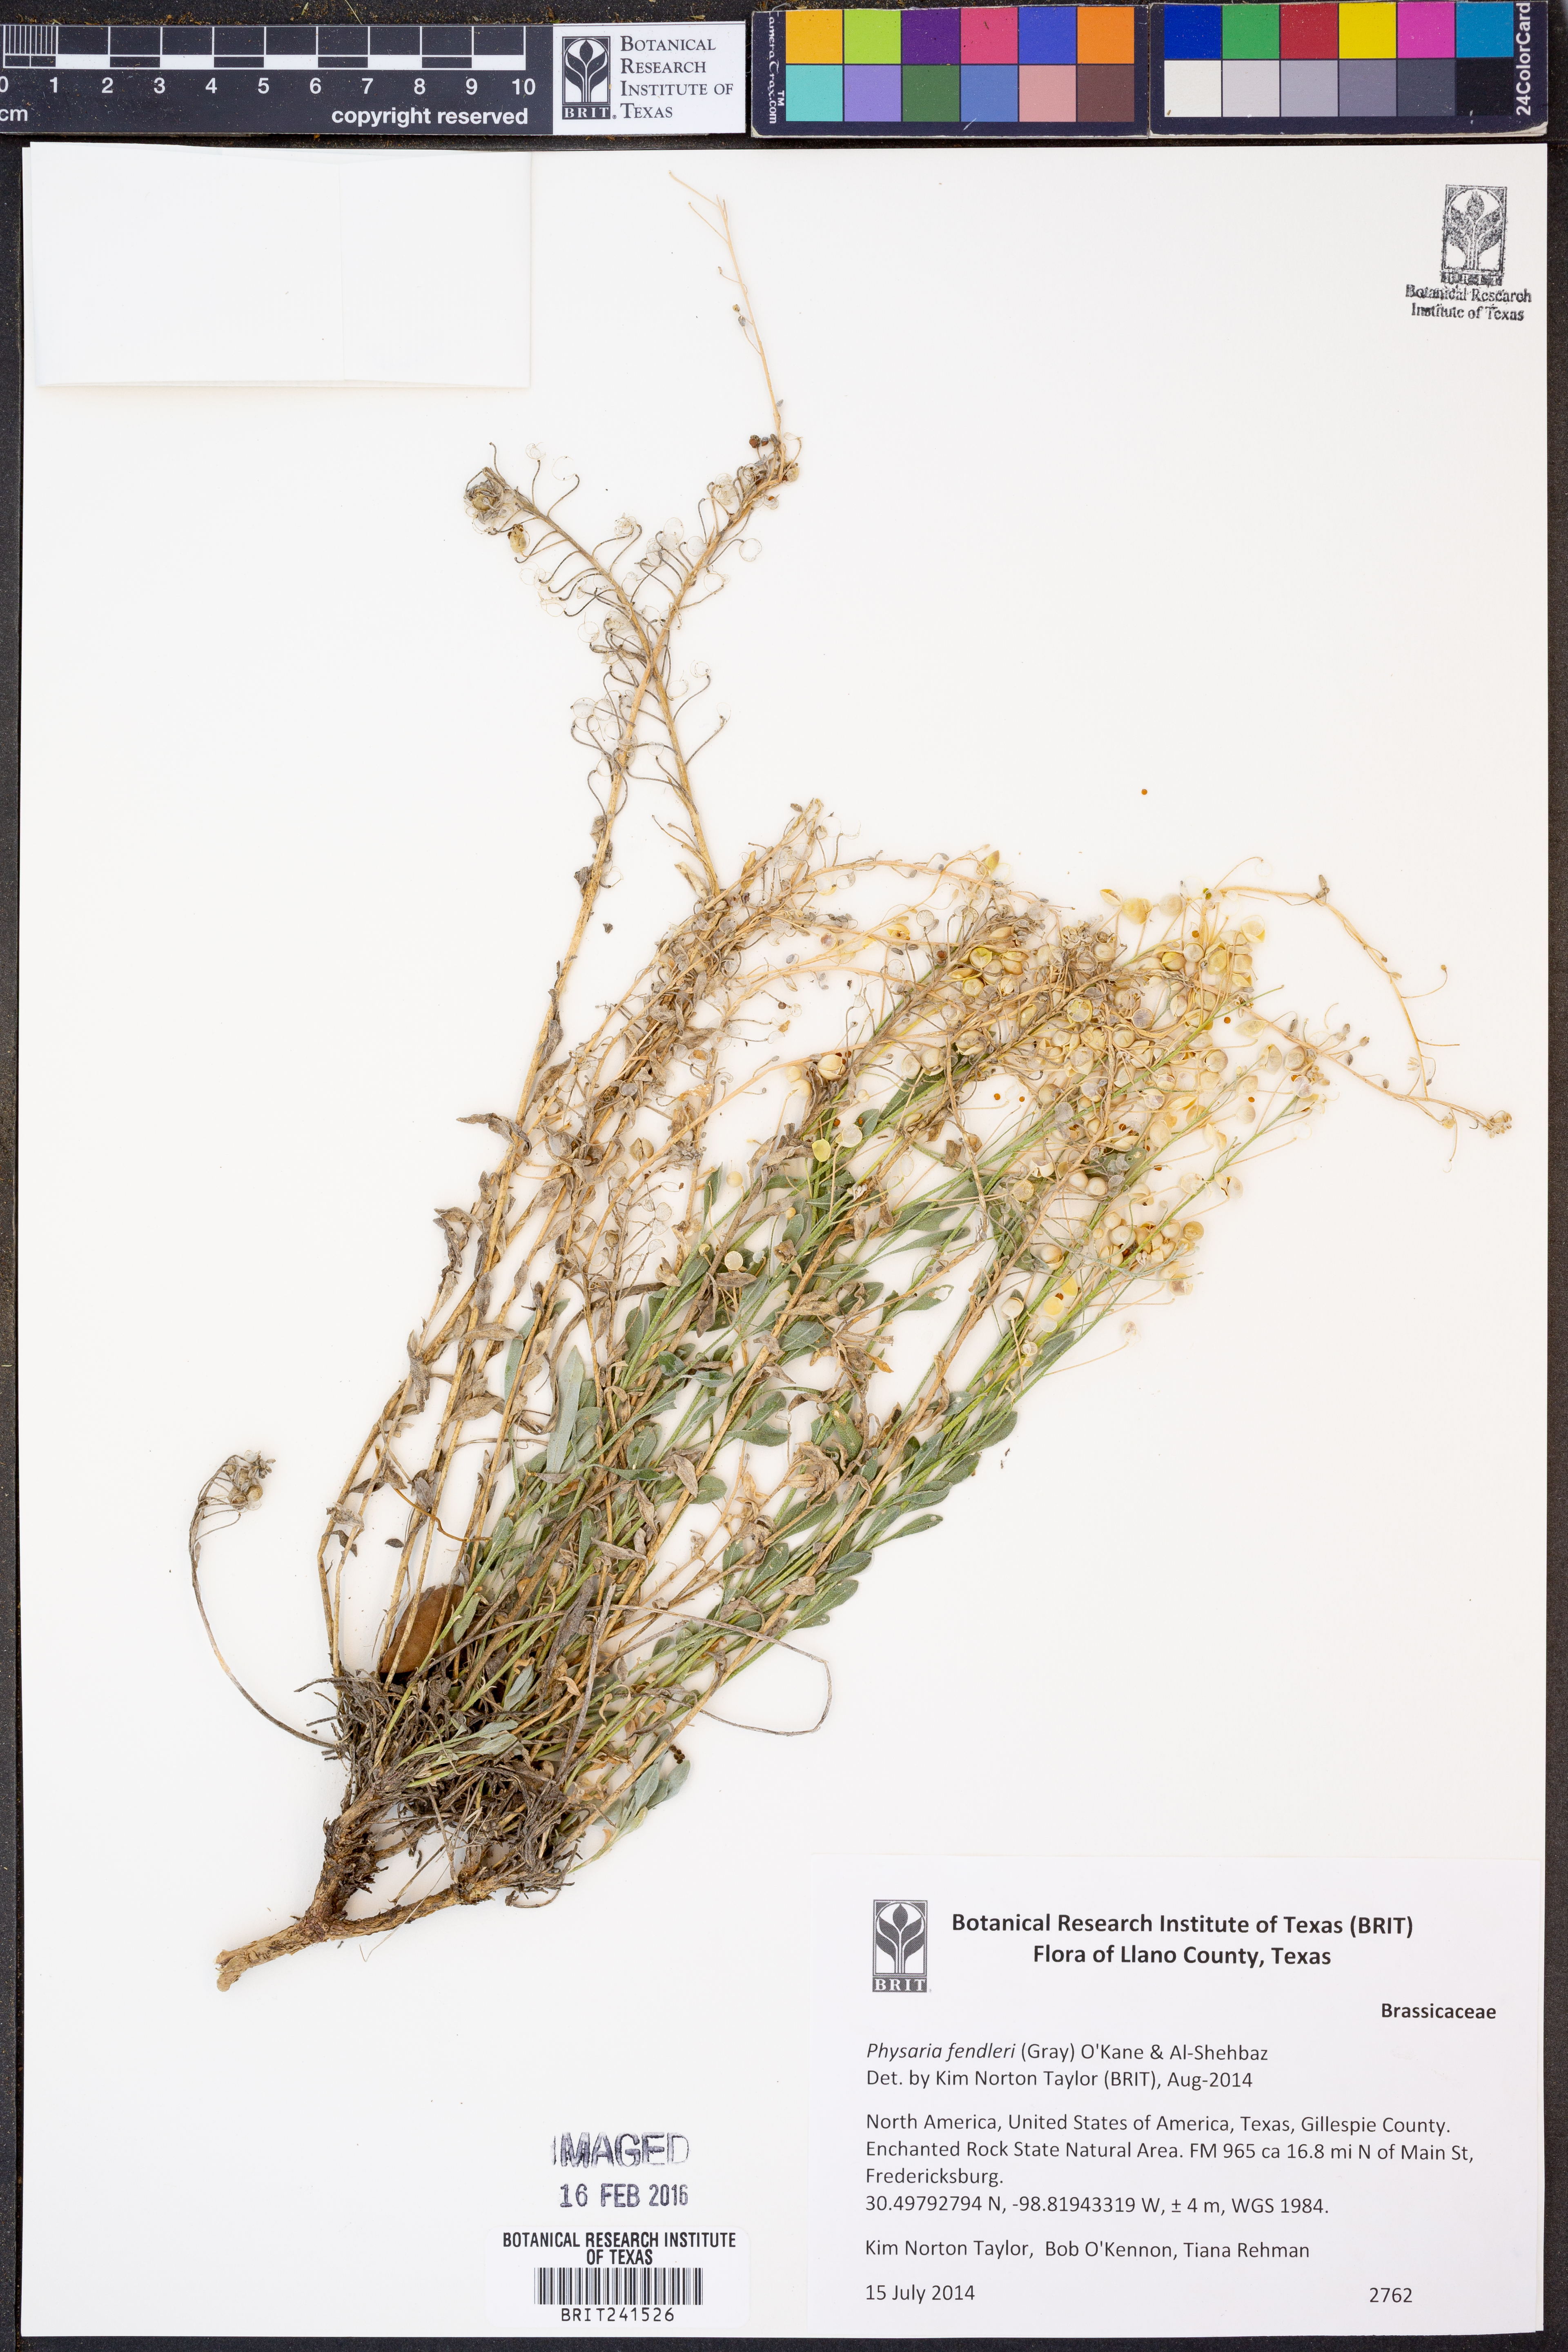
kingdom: Plantae
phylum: Tracheophyta
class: Magnoliopsida
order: Brassicales
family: Brassicaceae
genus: Physaria
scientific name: Physaria fendleri
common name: Fendler's bladderpod
